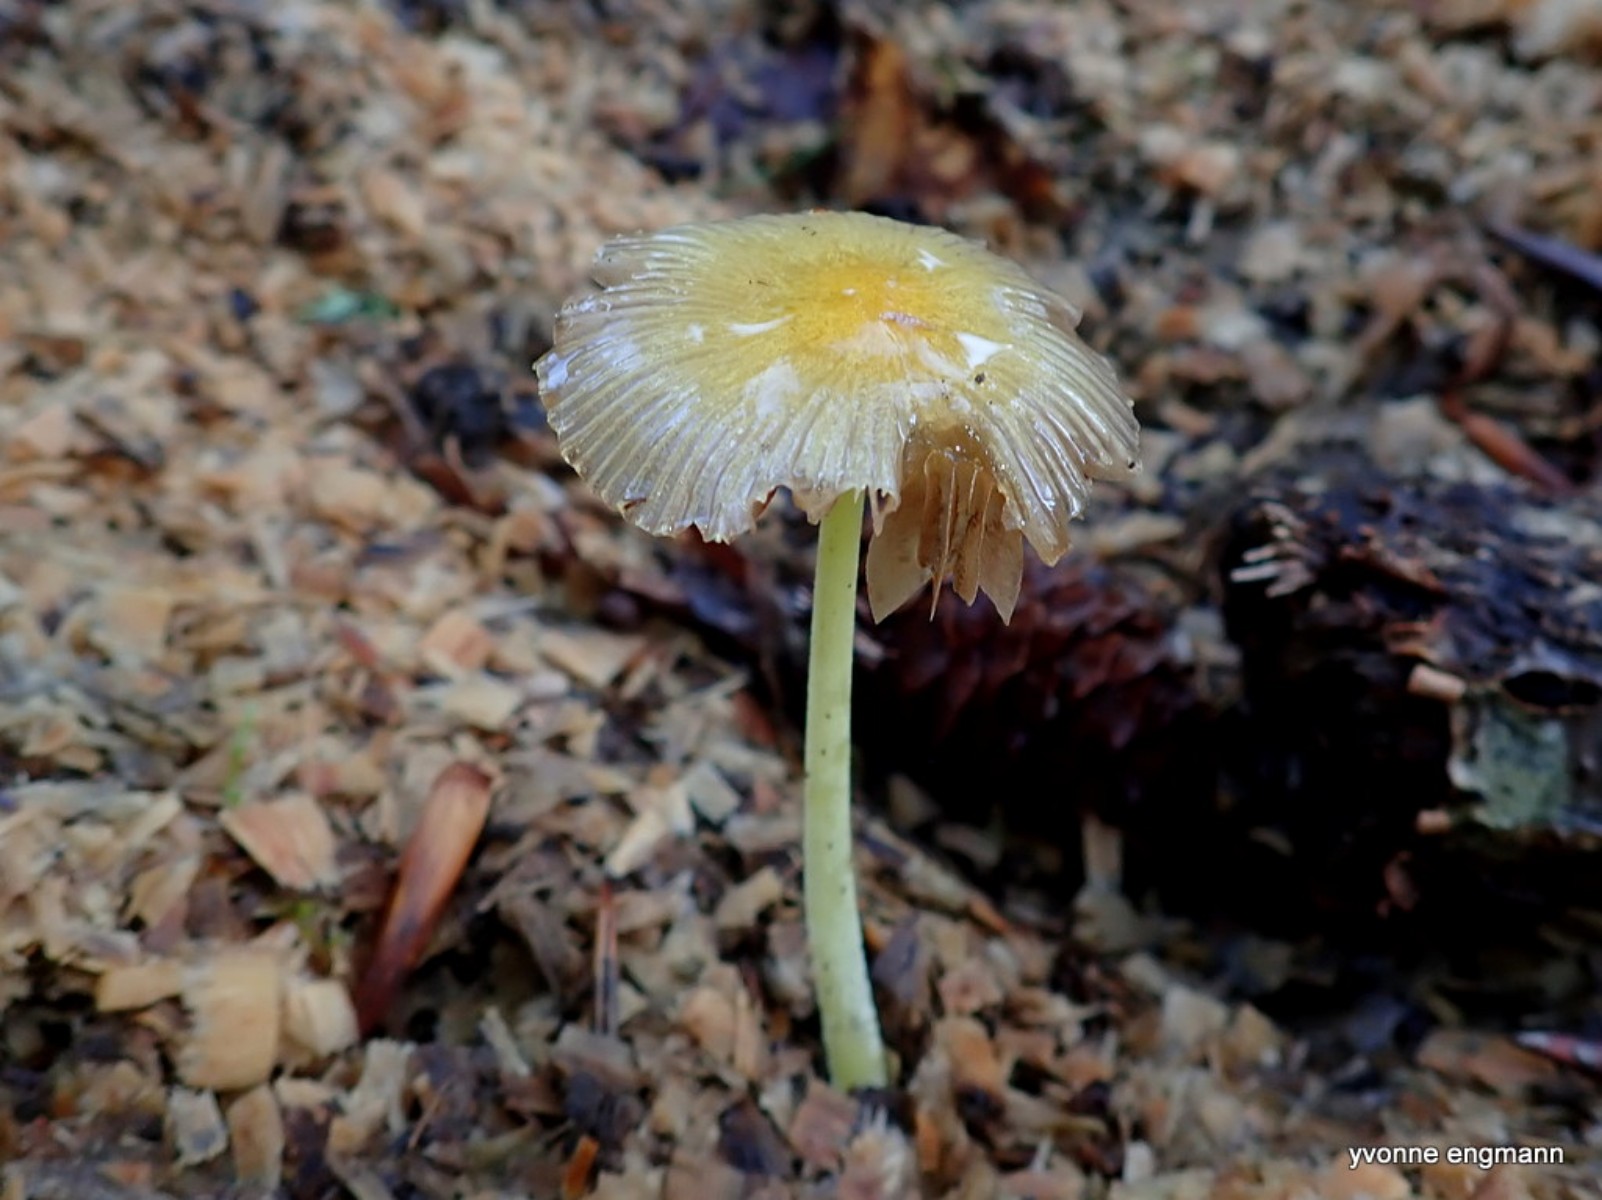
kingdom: Fungi
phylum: Basidiomycota
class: Agaricomycetes
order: Agaricales
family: Bolbitiaceae
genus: Bolbitius
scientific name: Bolbitius titubans
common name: almindelig gulhat
